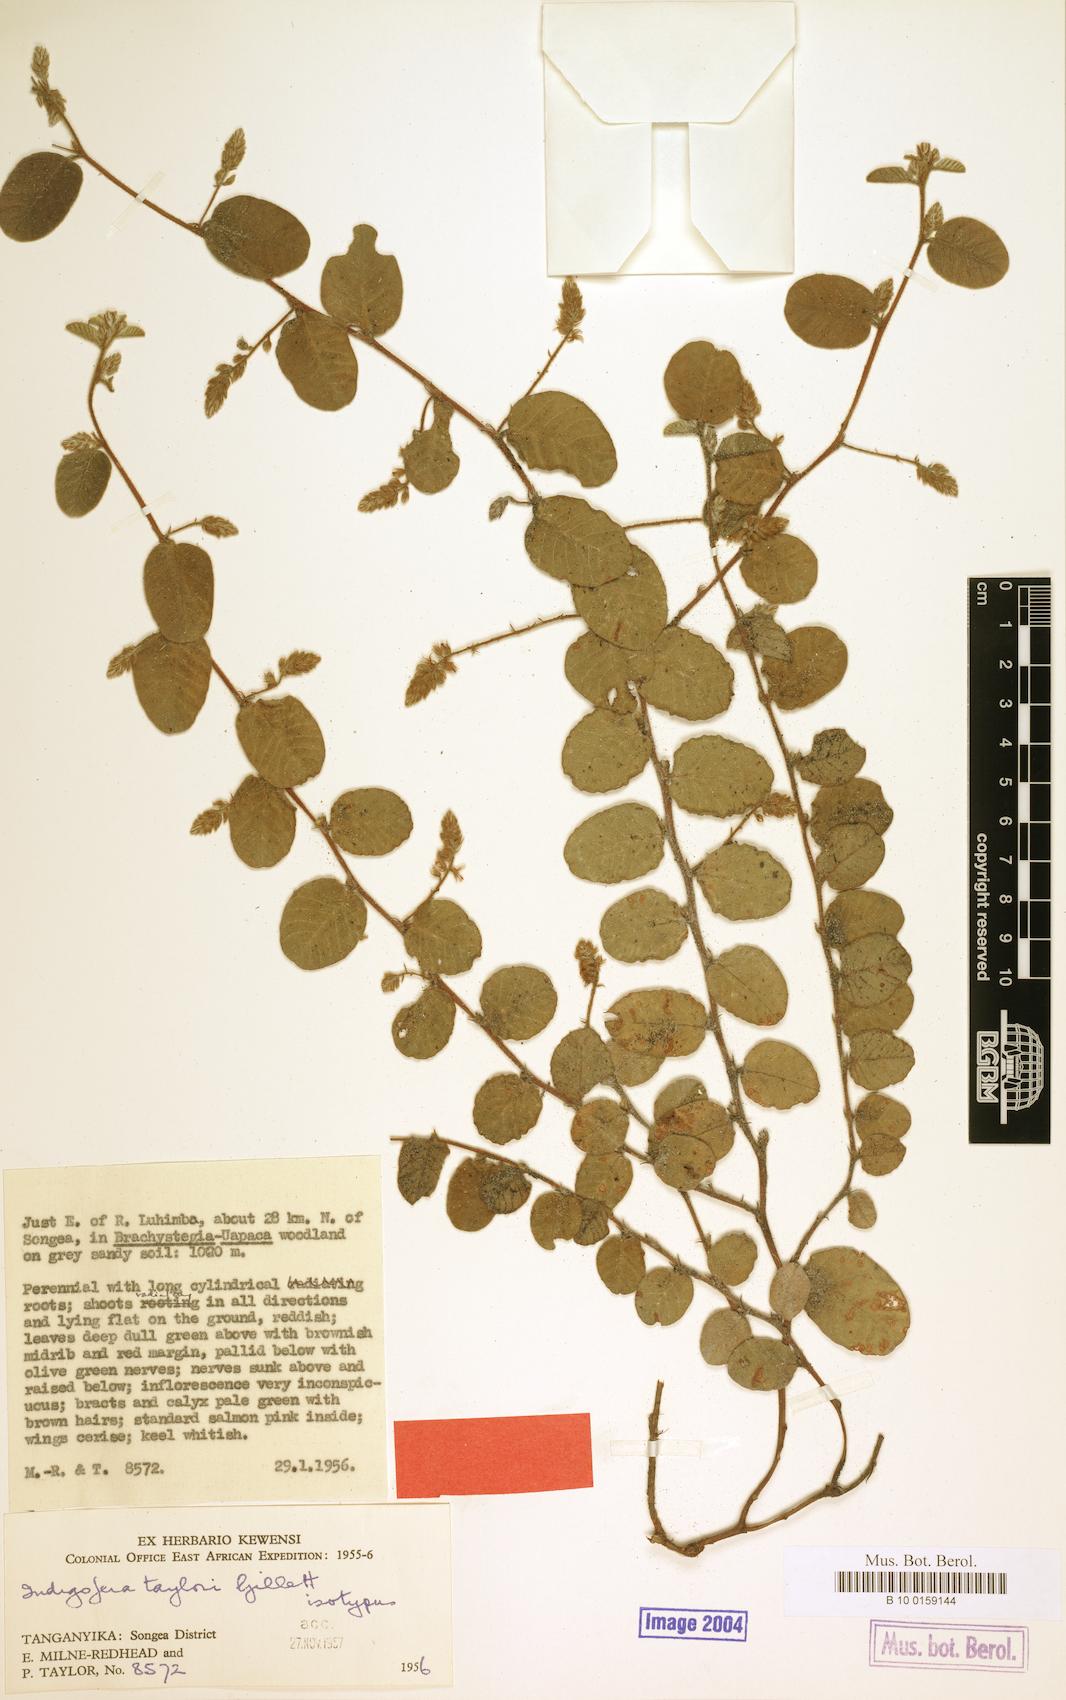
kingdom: Plantae
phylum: Tracheophyta
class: Magnoliopsida
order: Fabales
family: Fabaceae
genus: Indigofera
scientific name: Indigofera taylorii
